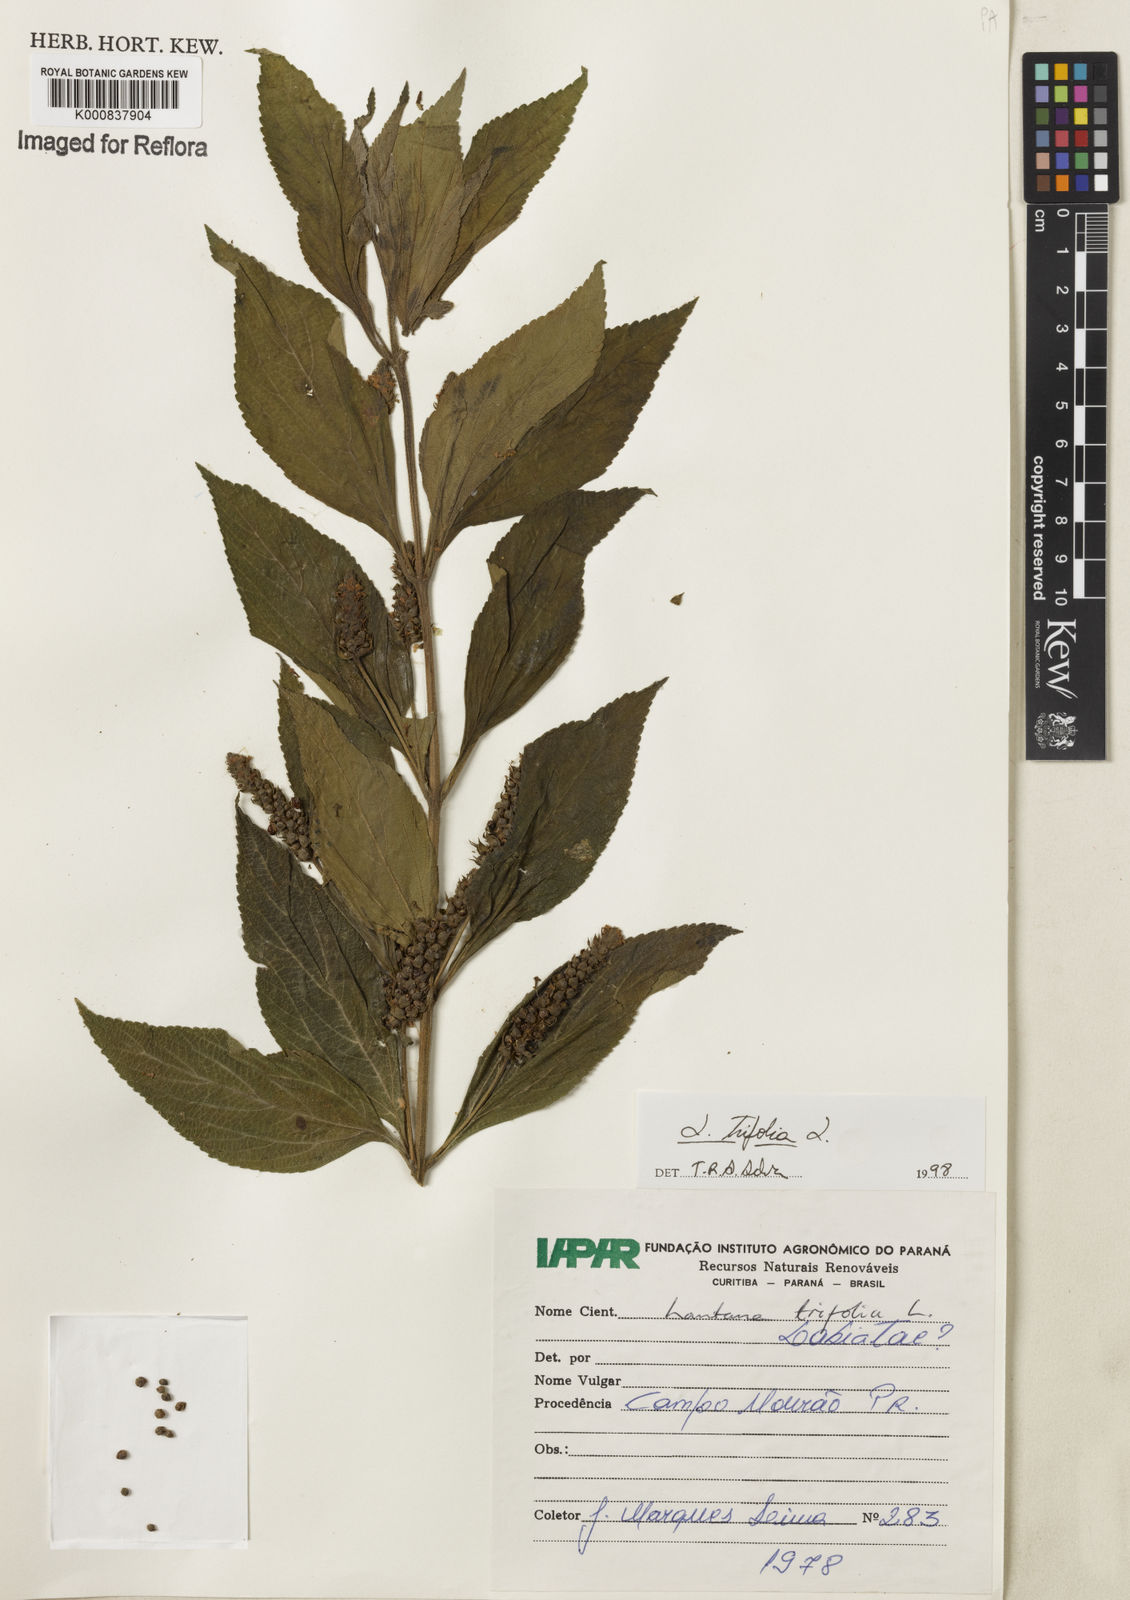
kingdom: Plantae
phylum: Tracheophyta
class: Magnoliopsida
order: Lamiales
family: Verbenaceae
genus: Lantana
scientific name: Lantana trifolia
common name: Sweet-sage
